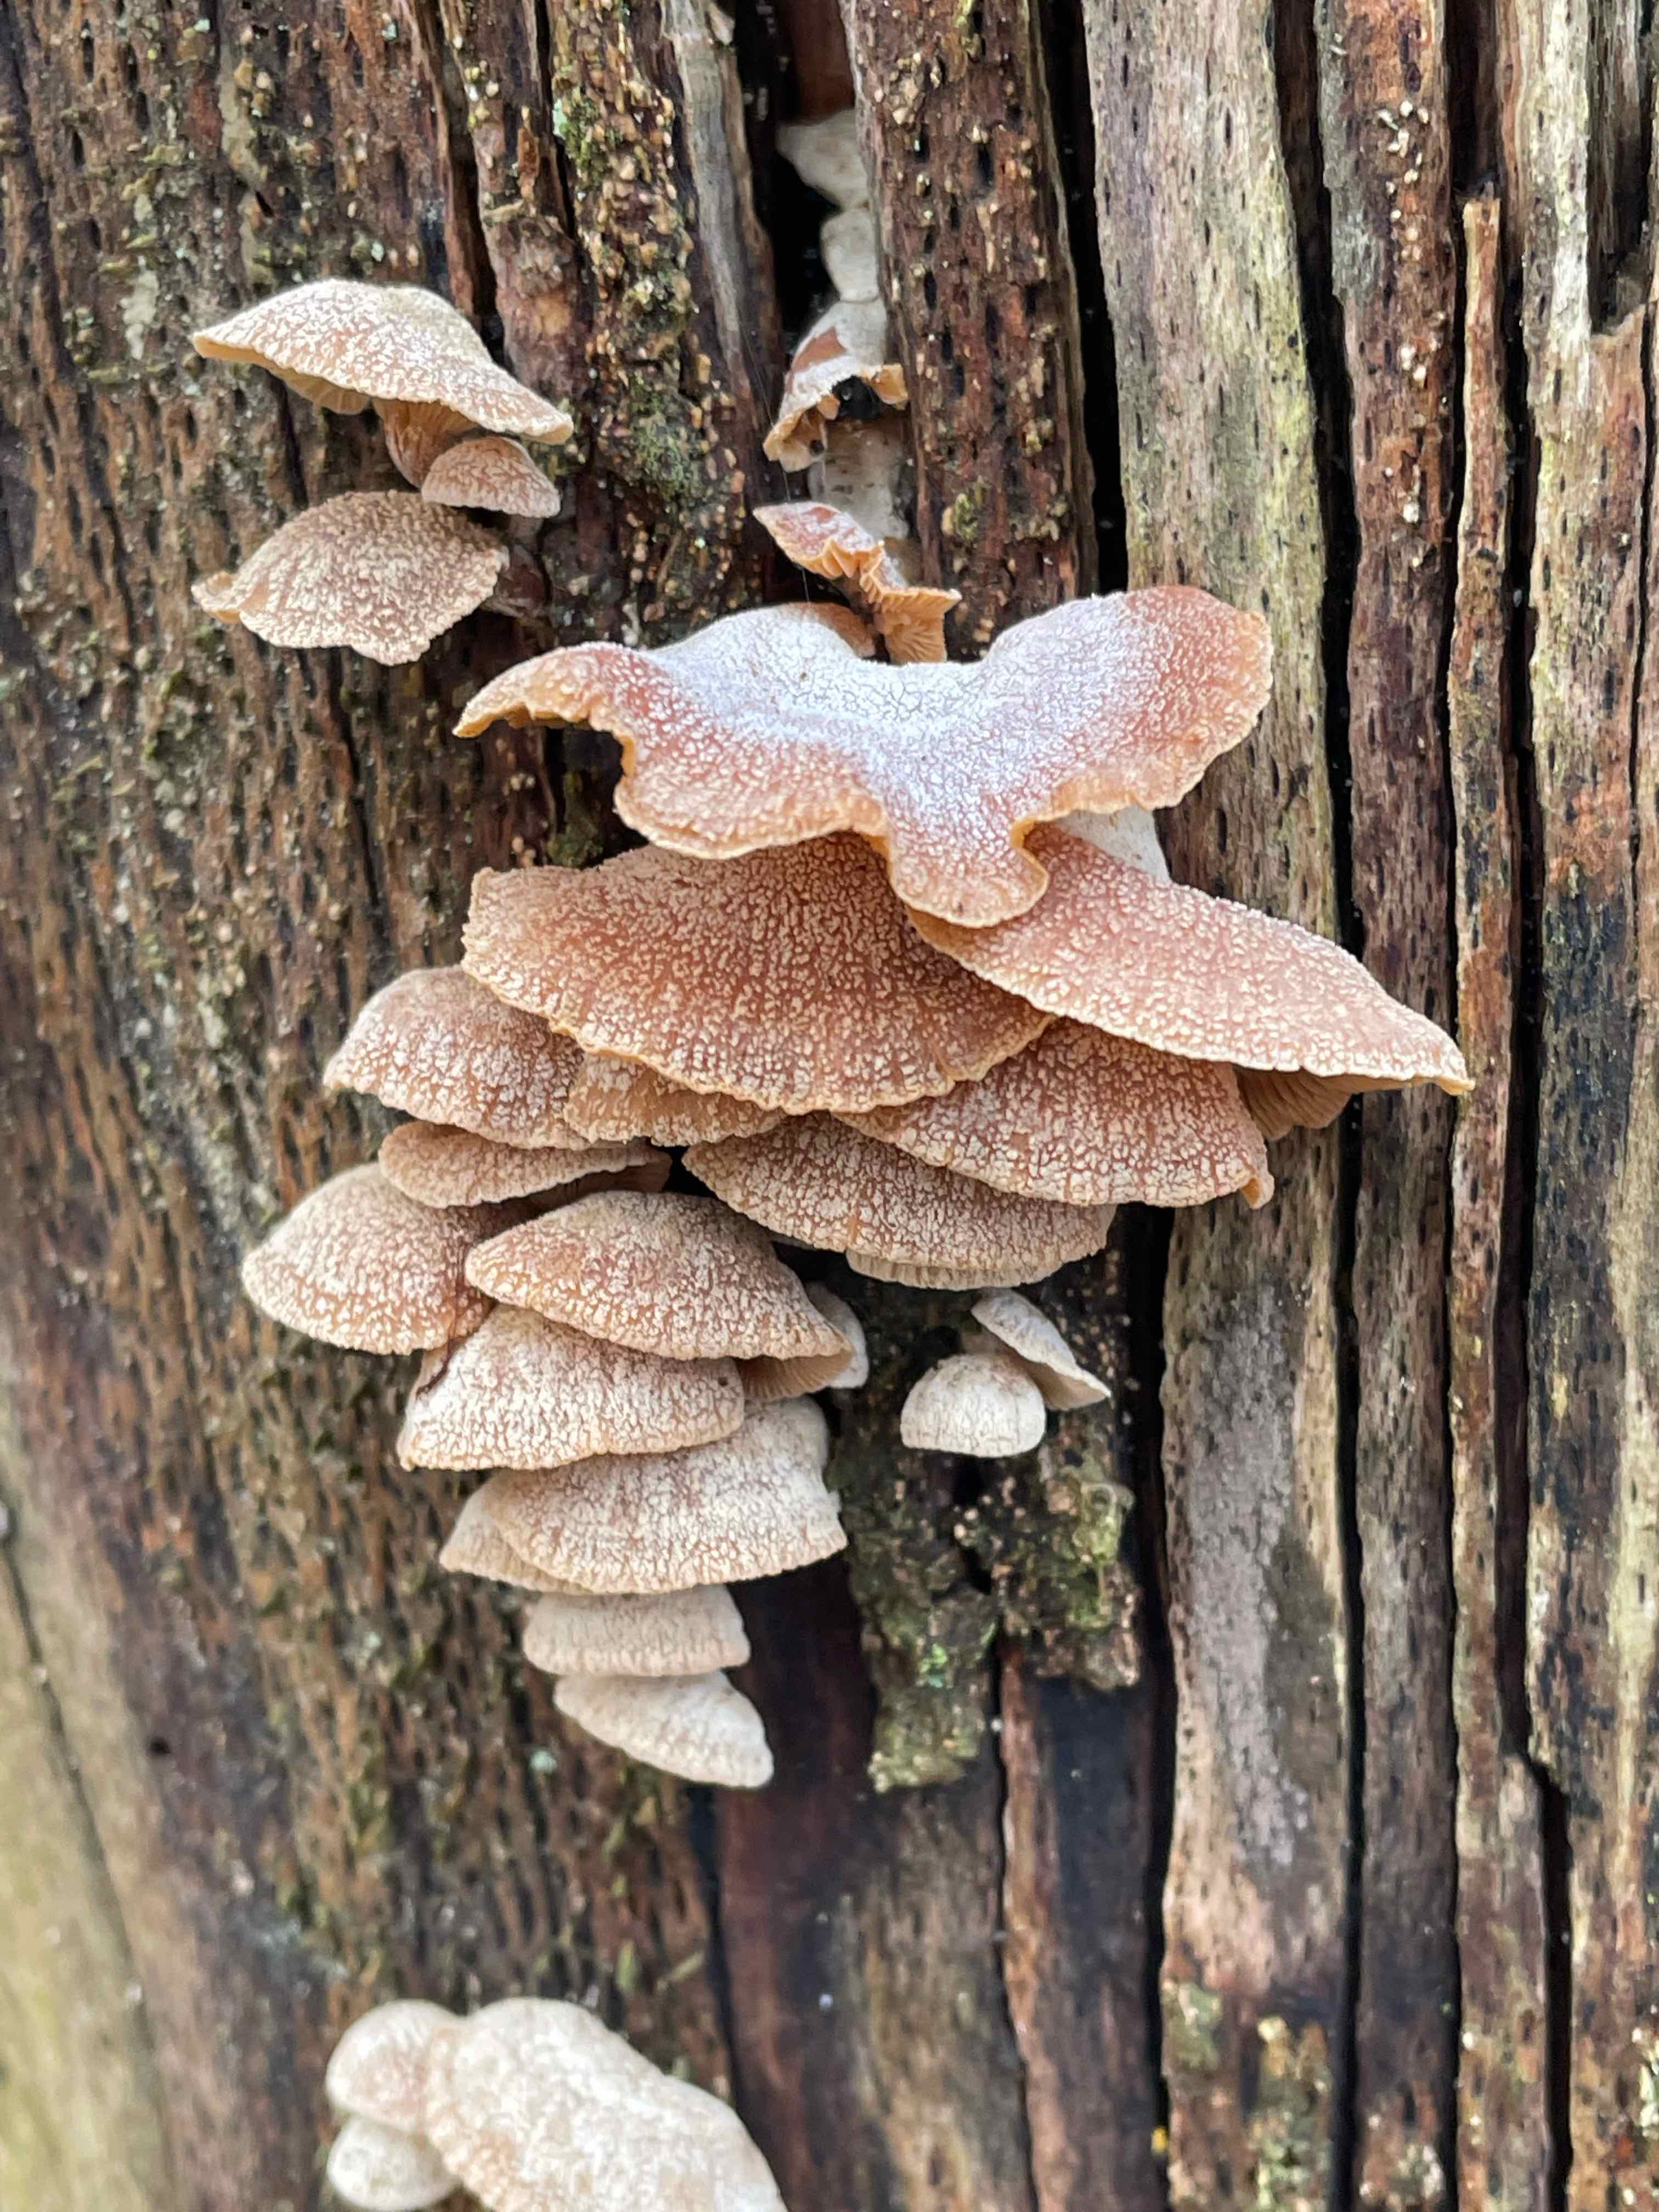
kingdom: Fungi
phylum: Basidiomycota
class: Agaricomycetes
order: Agaricales
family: Mycenaceae
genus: Panellus
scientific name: Panellus stipticus
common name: kliddet epaulethat
